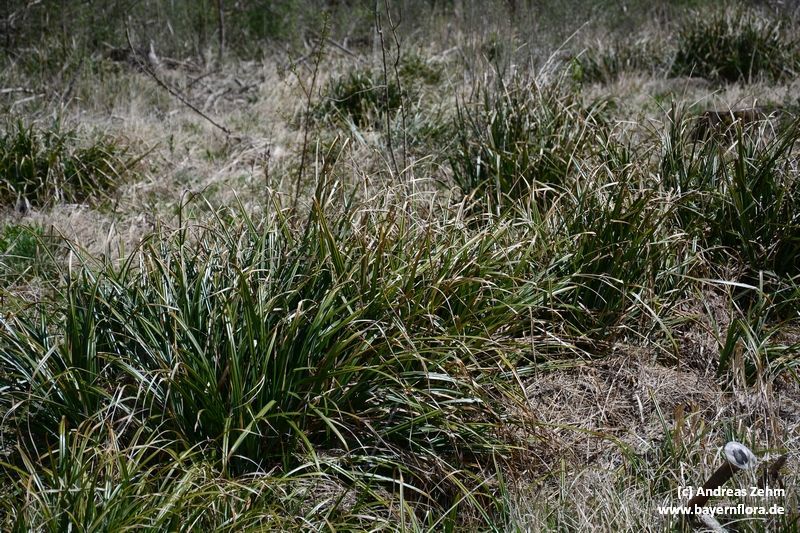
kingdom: Plantae
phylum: Tracheophyta
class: Liliopsida
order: Poales
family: Cyperaceae
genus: Carex
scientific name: Carex agastachys
